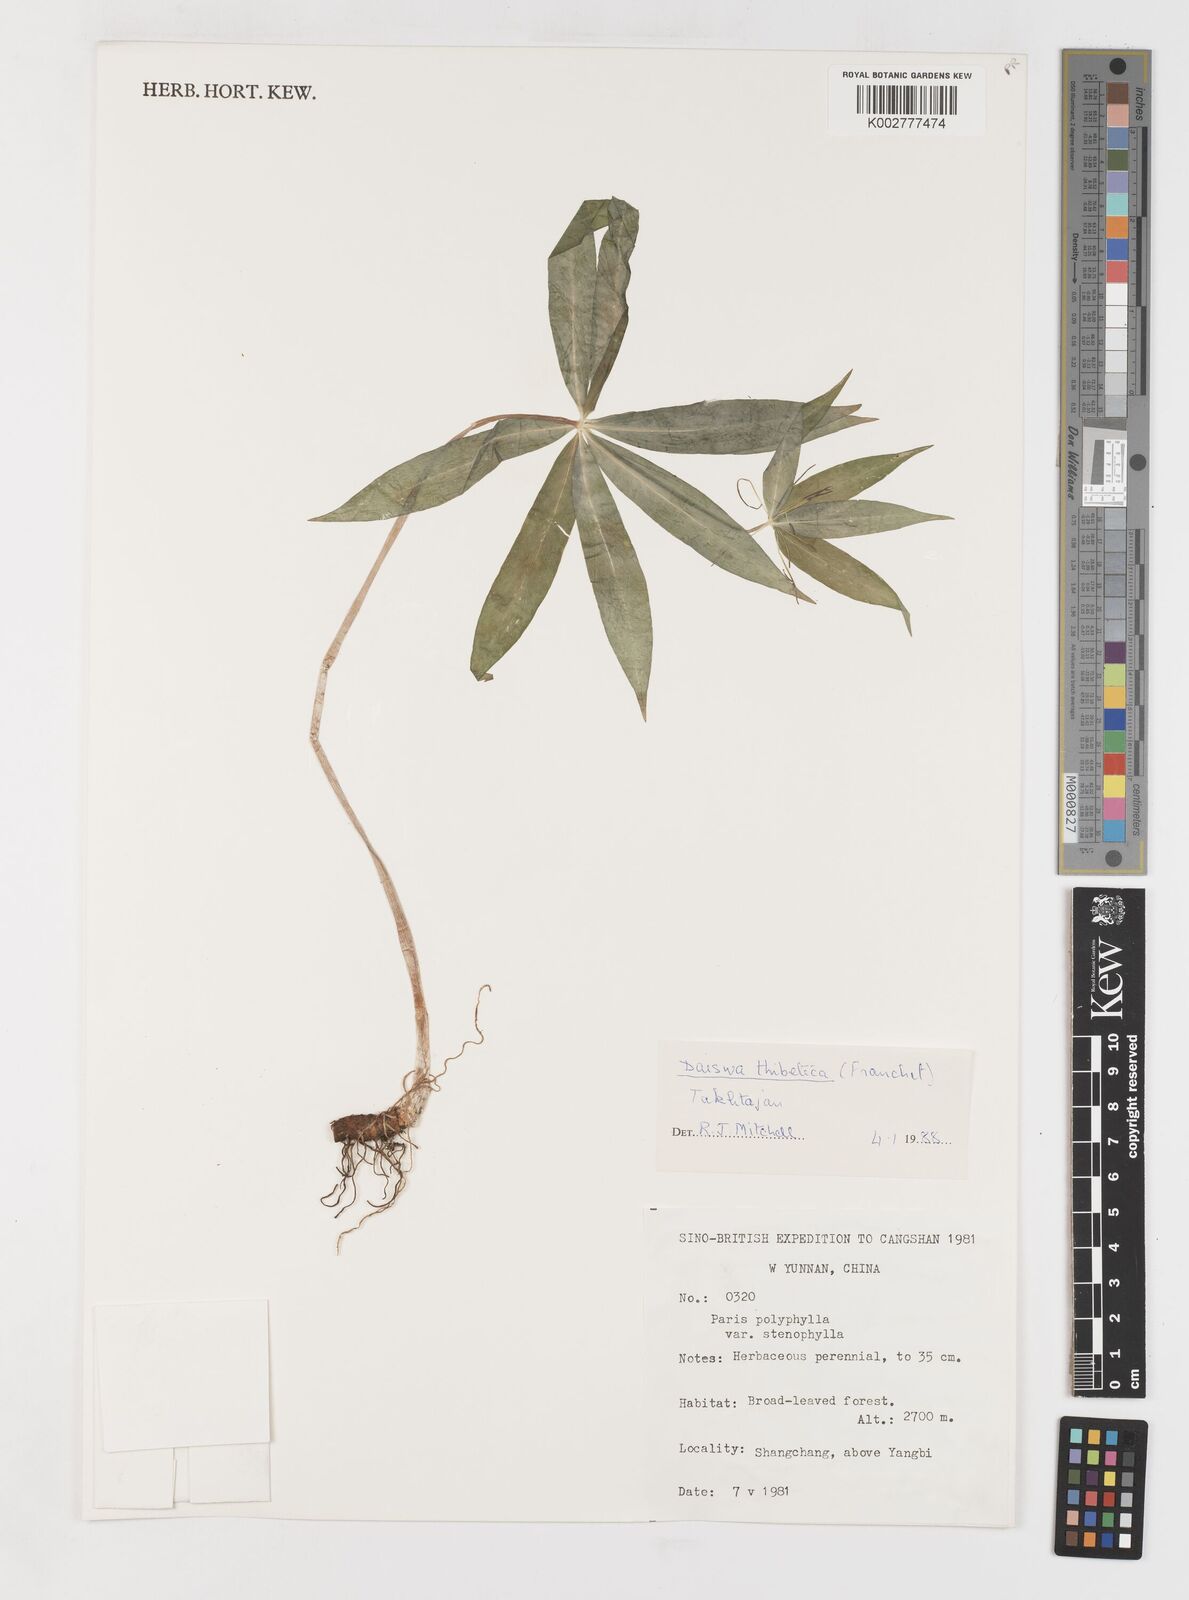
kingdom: Plantae
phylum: Tracheophyta
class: Liliopsida
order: Liliales
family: Melanthiaceae
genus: Paris
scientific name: Paris thibetica
